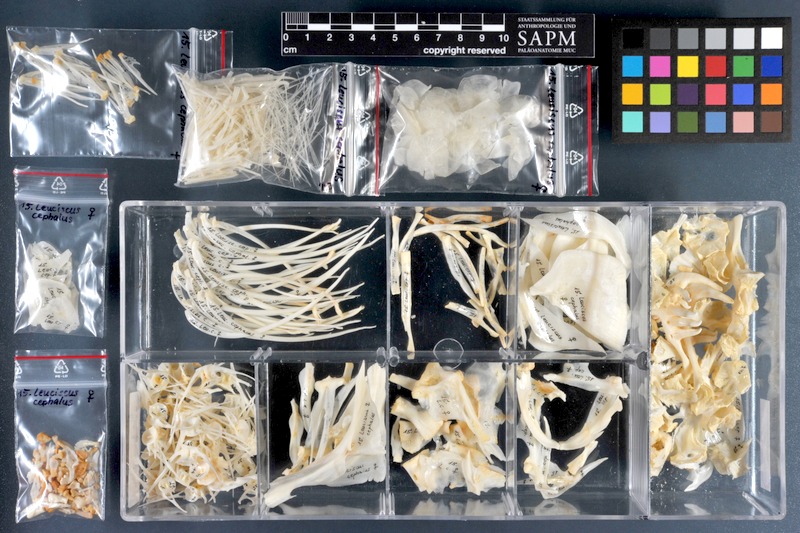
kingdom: Animalia
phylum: Chordata
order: Cypriniformes
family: Cyprinidae
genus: Squalius
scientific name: Squalius cephalus
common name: Chub
